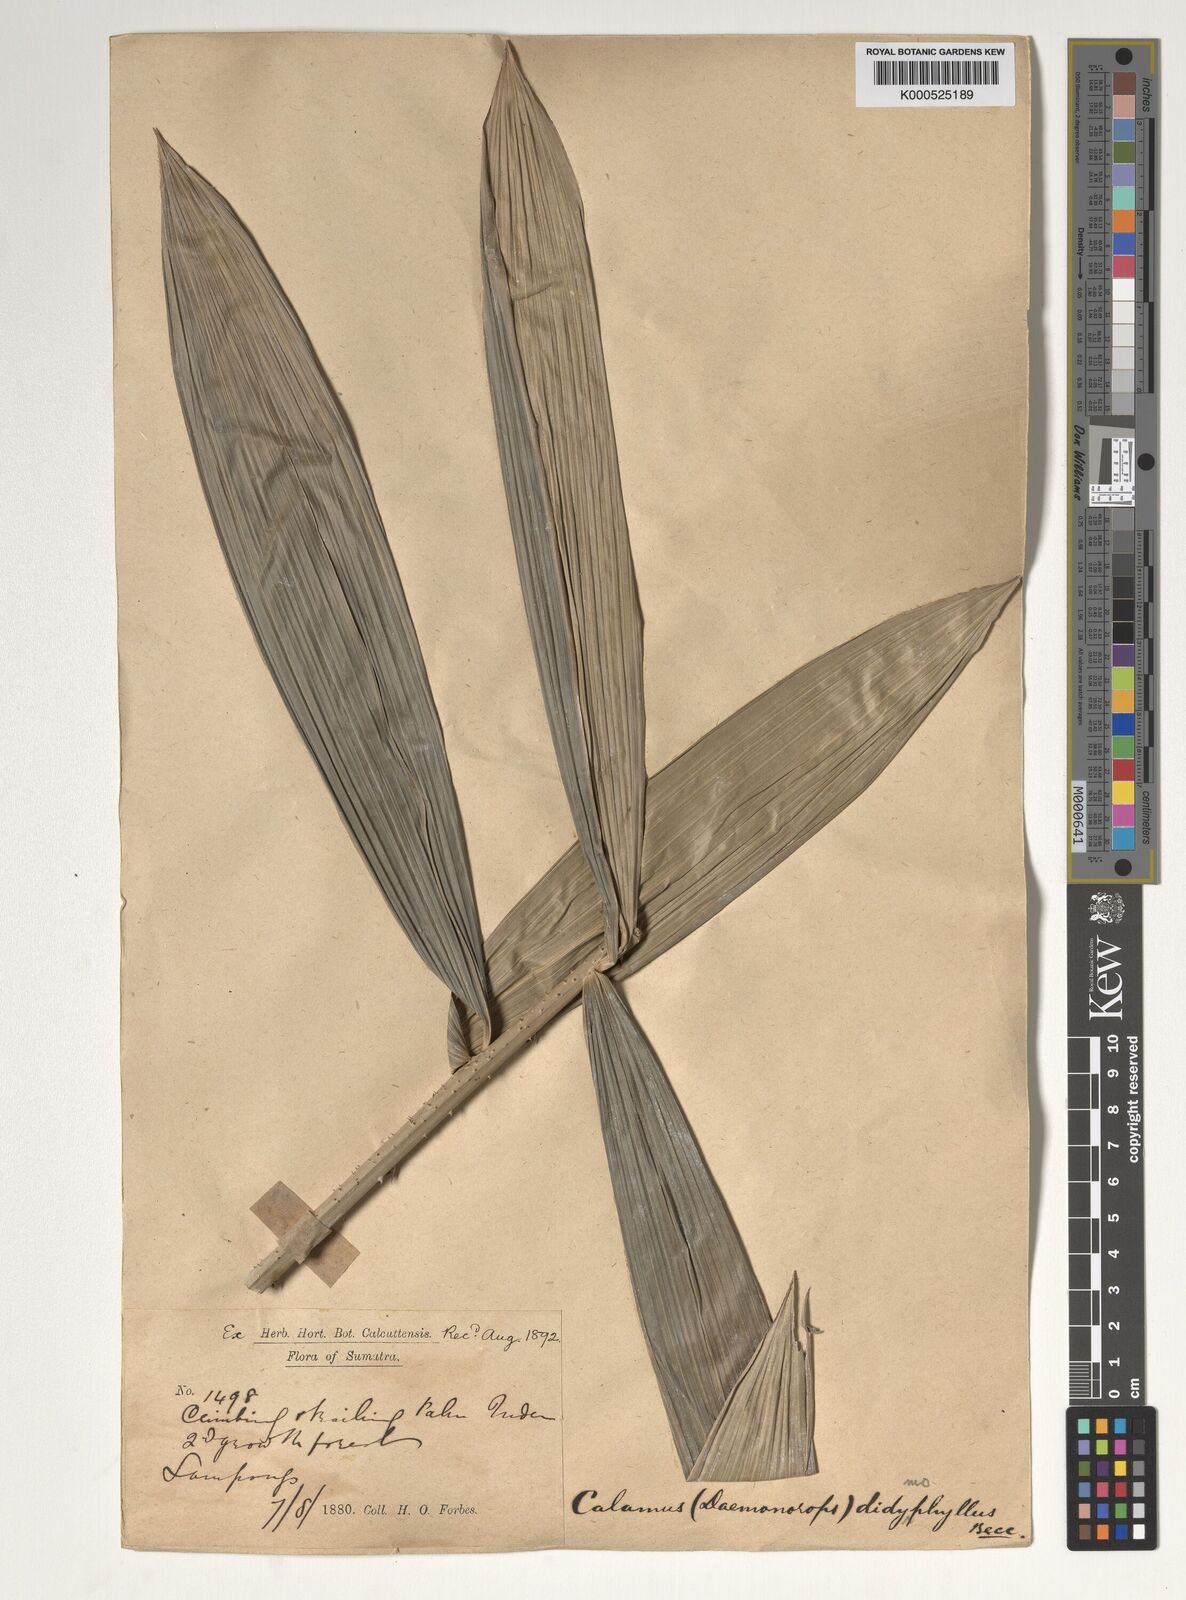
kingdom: Plantae
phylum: Tracheophyta
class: Liliopsida
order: Arecales
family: Arecaceae
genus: Calamus
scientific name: Calamus gracilipes
